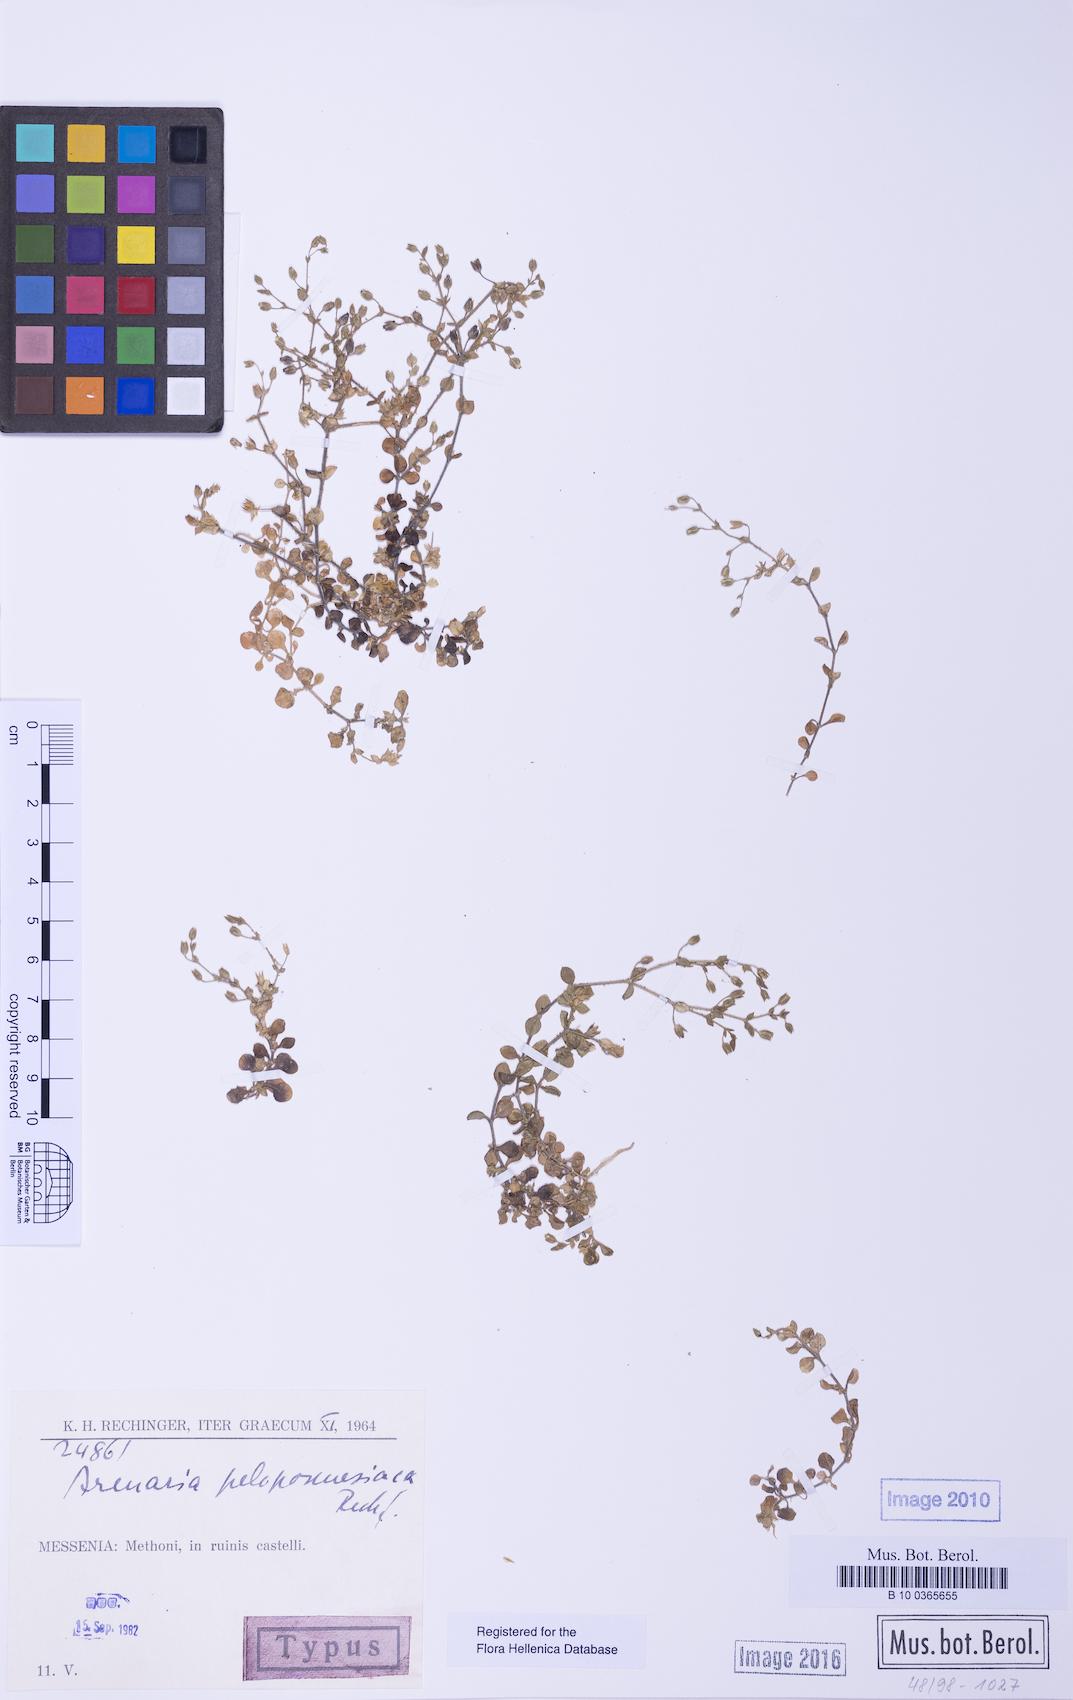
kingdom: Plantae
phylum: Tracheophyta
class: Magnoliopsida
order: Caryophyllales
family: Caryophyllaceae
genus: Arenaria
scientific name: Arenaria leptoclados
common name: Thyme-leaved sandwort
